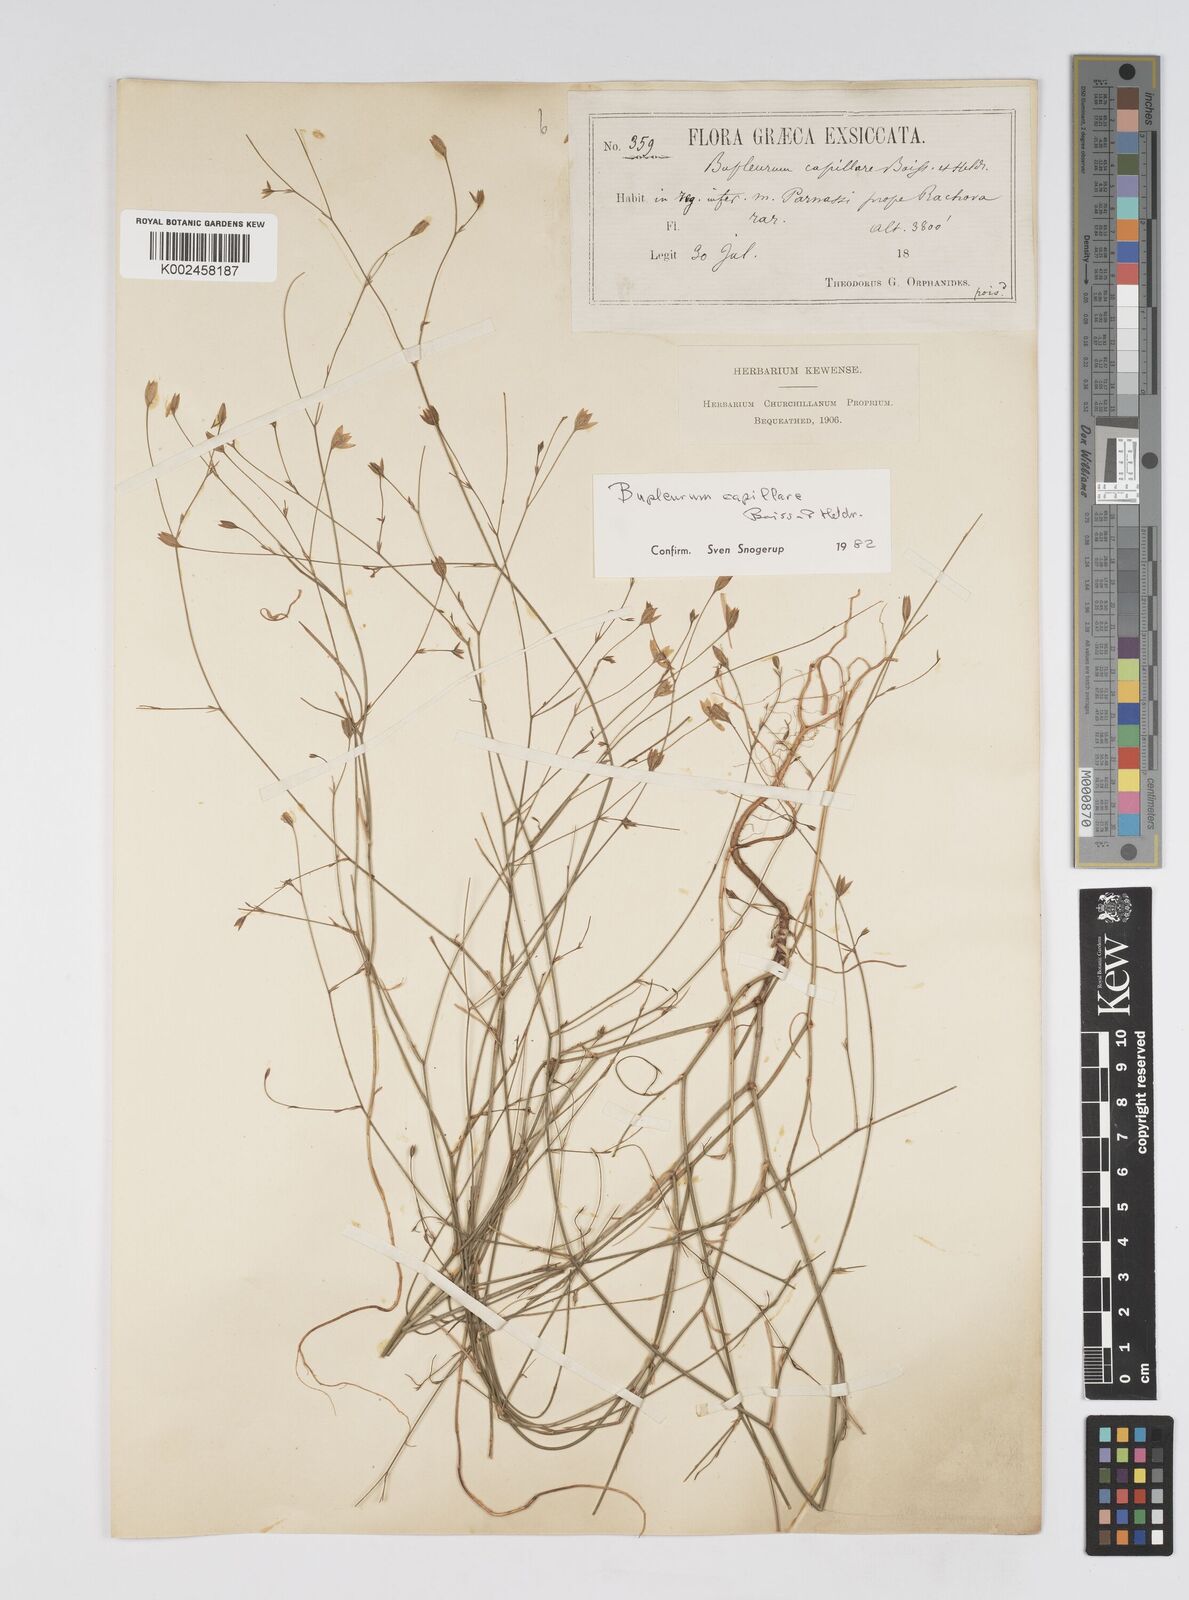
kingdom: Plantae
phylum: Tracheophyta
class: Magnoliopsida
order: Apiales
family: Apiaceae
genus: Bupleurum
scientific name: Bupleurum capillare
